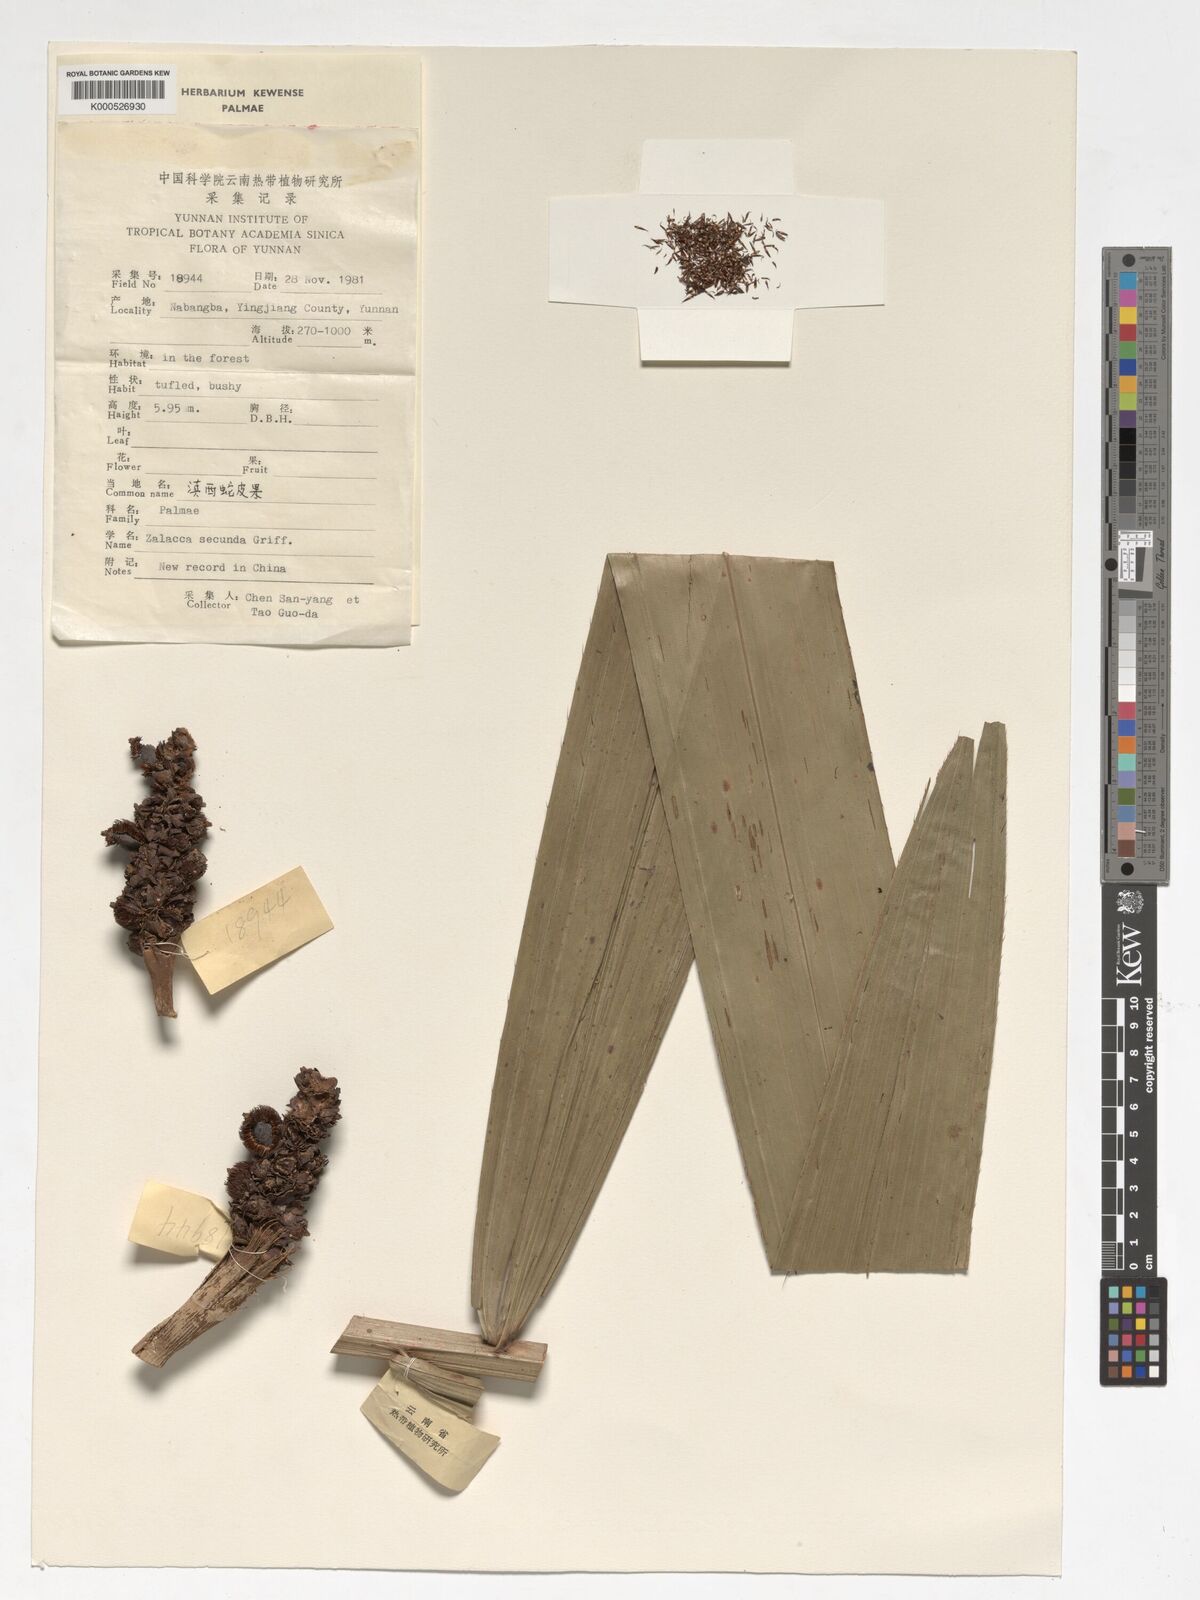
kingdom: Plantae
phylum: Tracheophyta
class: Liliopsida
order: Arecales
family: Arecaceae
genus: Salacca
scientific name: Salacca secunda
